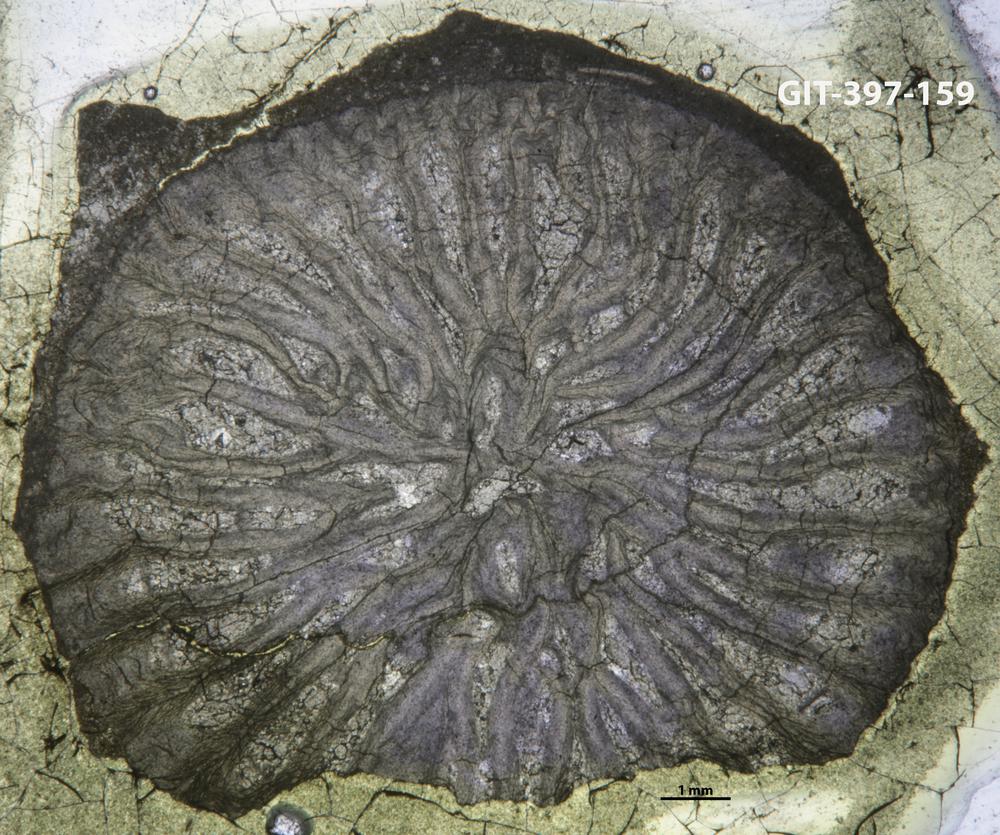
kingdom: Animalia
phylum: Cnidaria
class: Anthozoa
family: Streptelasmatidae
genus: Rhegmaphyllum
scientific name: Rhegmaphyllum
